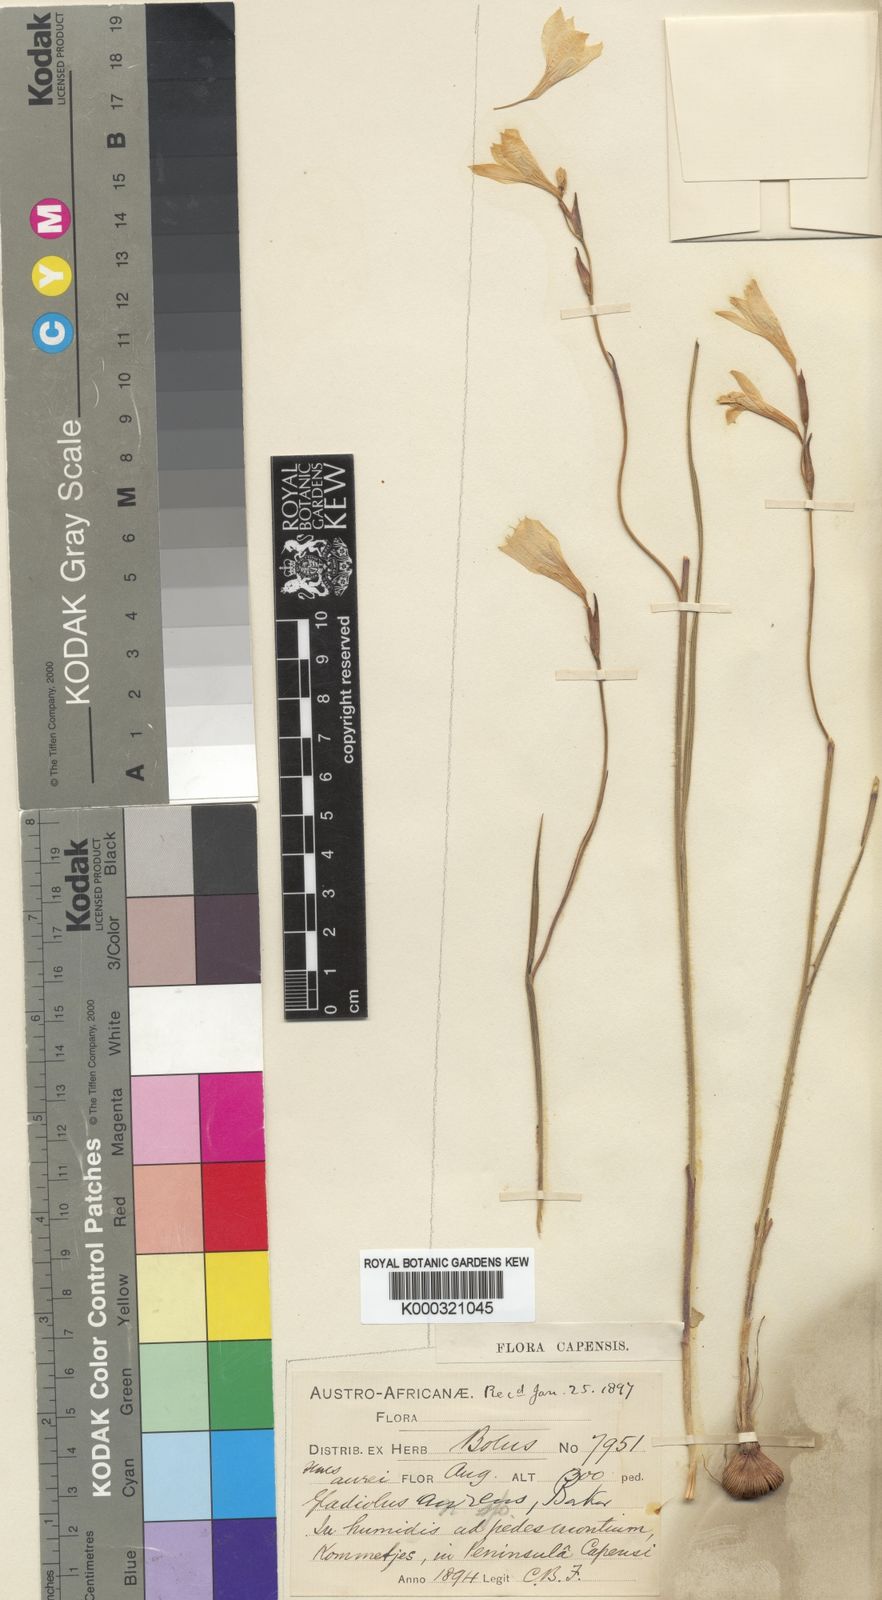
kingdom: Plantae
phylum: Tracheophyta
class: Liliopsida
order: Asparagales
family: Iridaceae
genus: Gladiolus
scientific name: Gladiolus aureus
